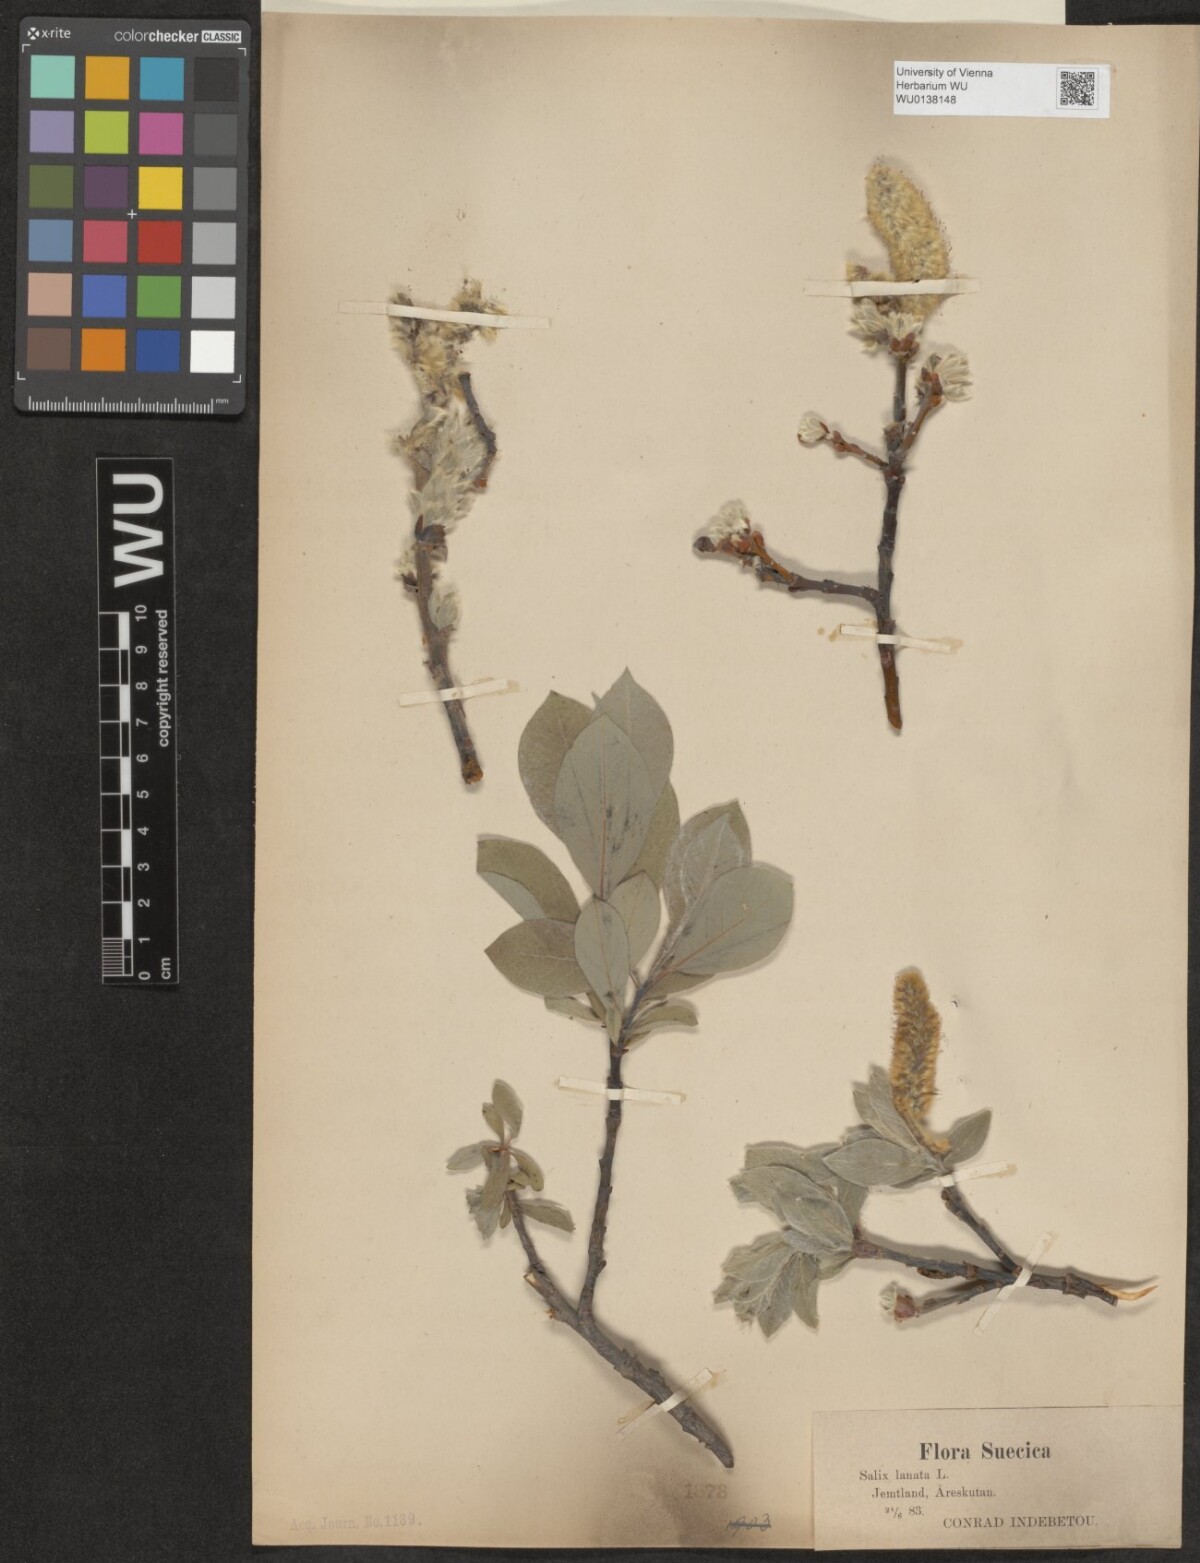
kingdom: Plantae
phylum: Tracheophyta
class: Magnoliopsida
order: Malpighiales
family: Salicaceae
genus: Salix
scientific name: Salix lanata
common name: Woolly willow
